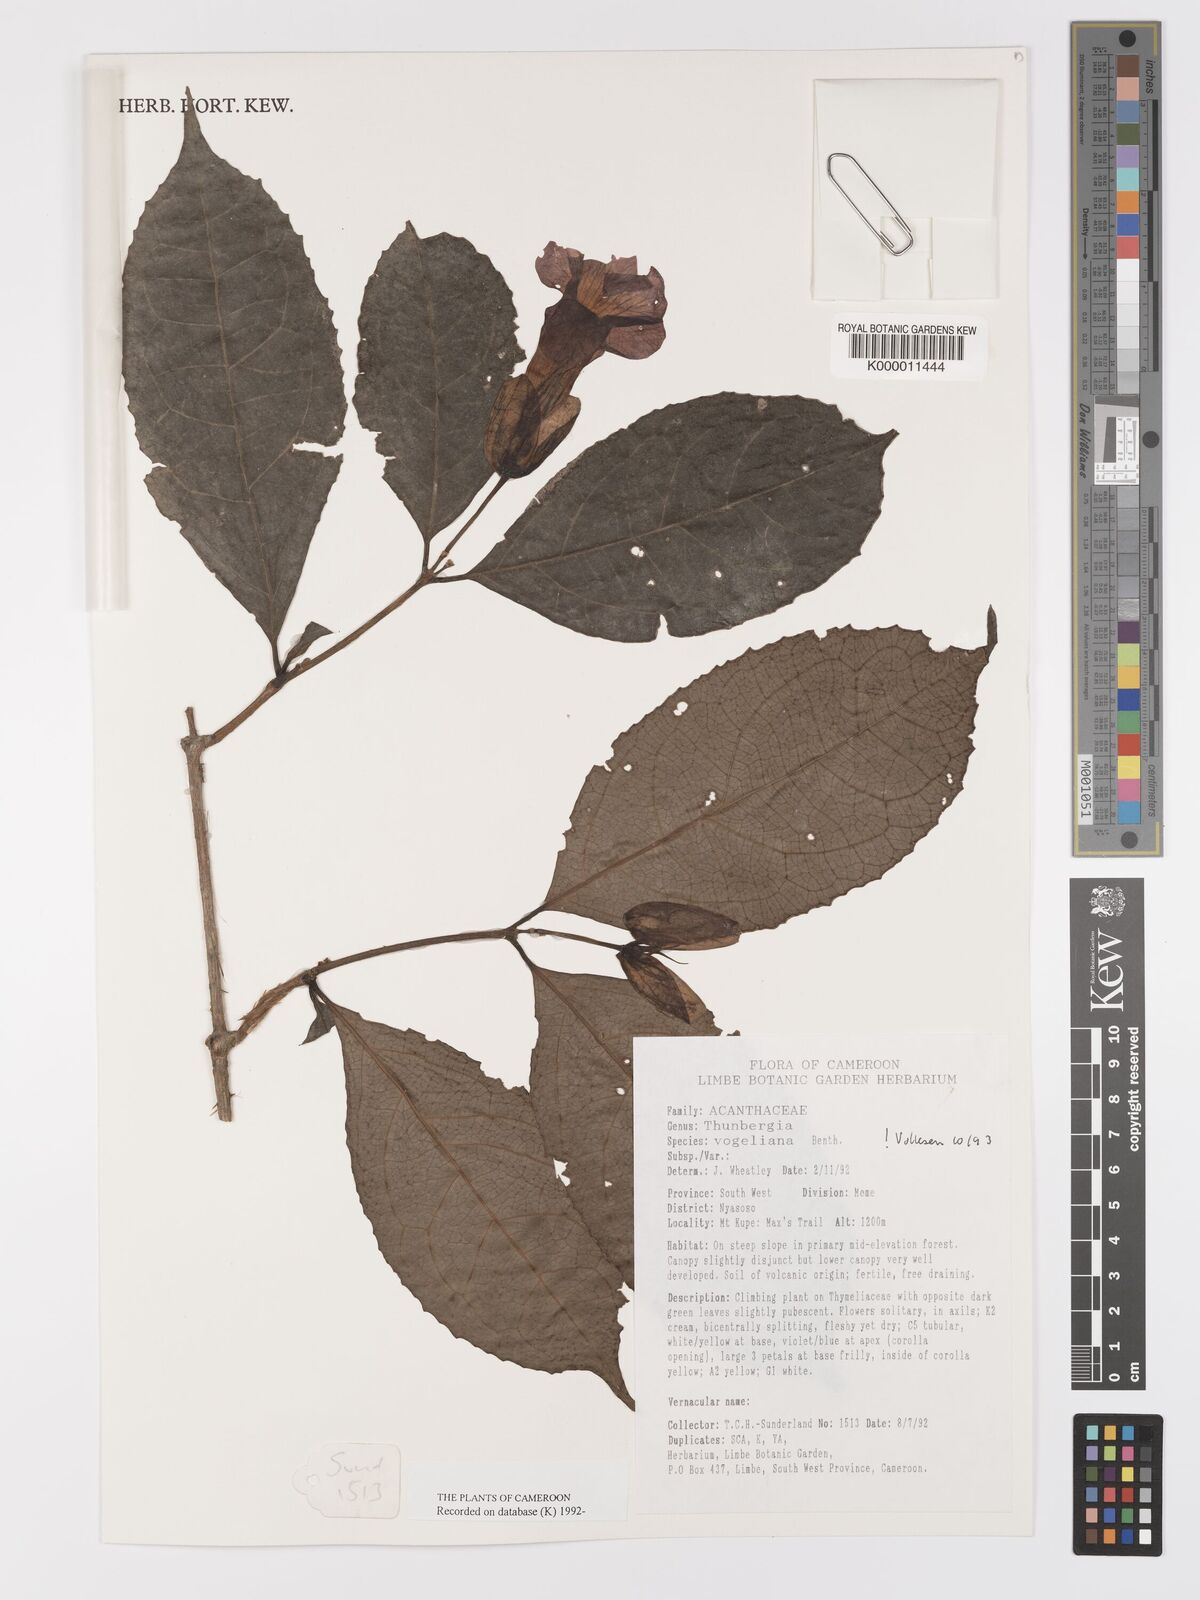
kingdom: Plantae
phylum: Tracheophyta
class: Magnoliopsida
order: Lamiales
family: Acanthaceae
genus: Thunbergia
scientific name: Thunbergia vogeliana
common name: Acanthaceae
